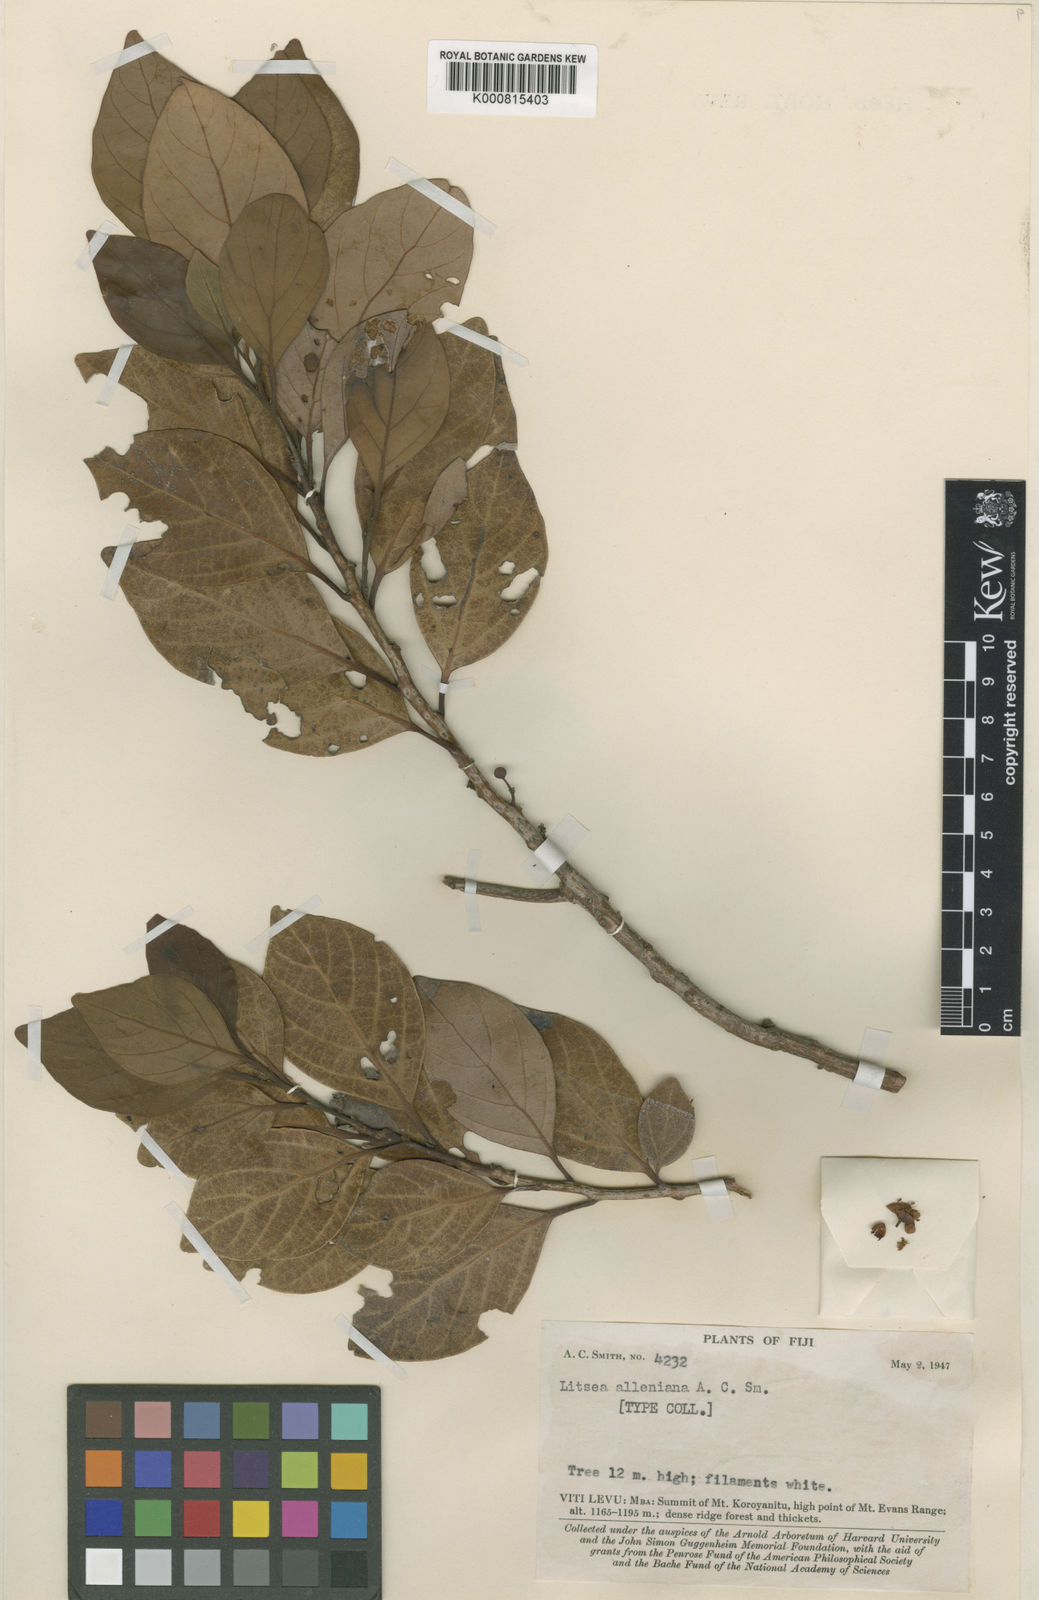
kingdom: Plantae
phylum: Tracheophyta
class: Magnoliopsida
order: Laurales
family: Lauraceae
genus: Litsea
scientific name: Litsea alleniana
